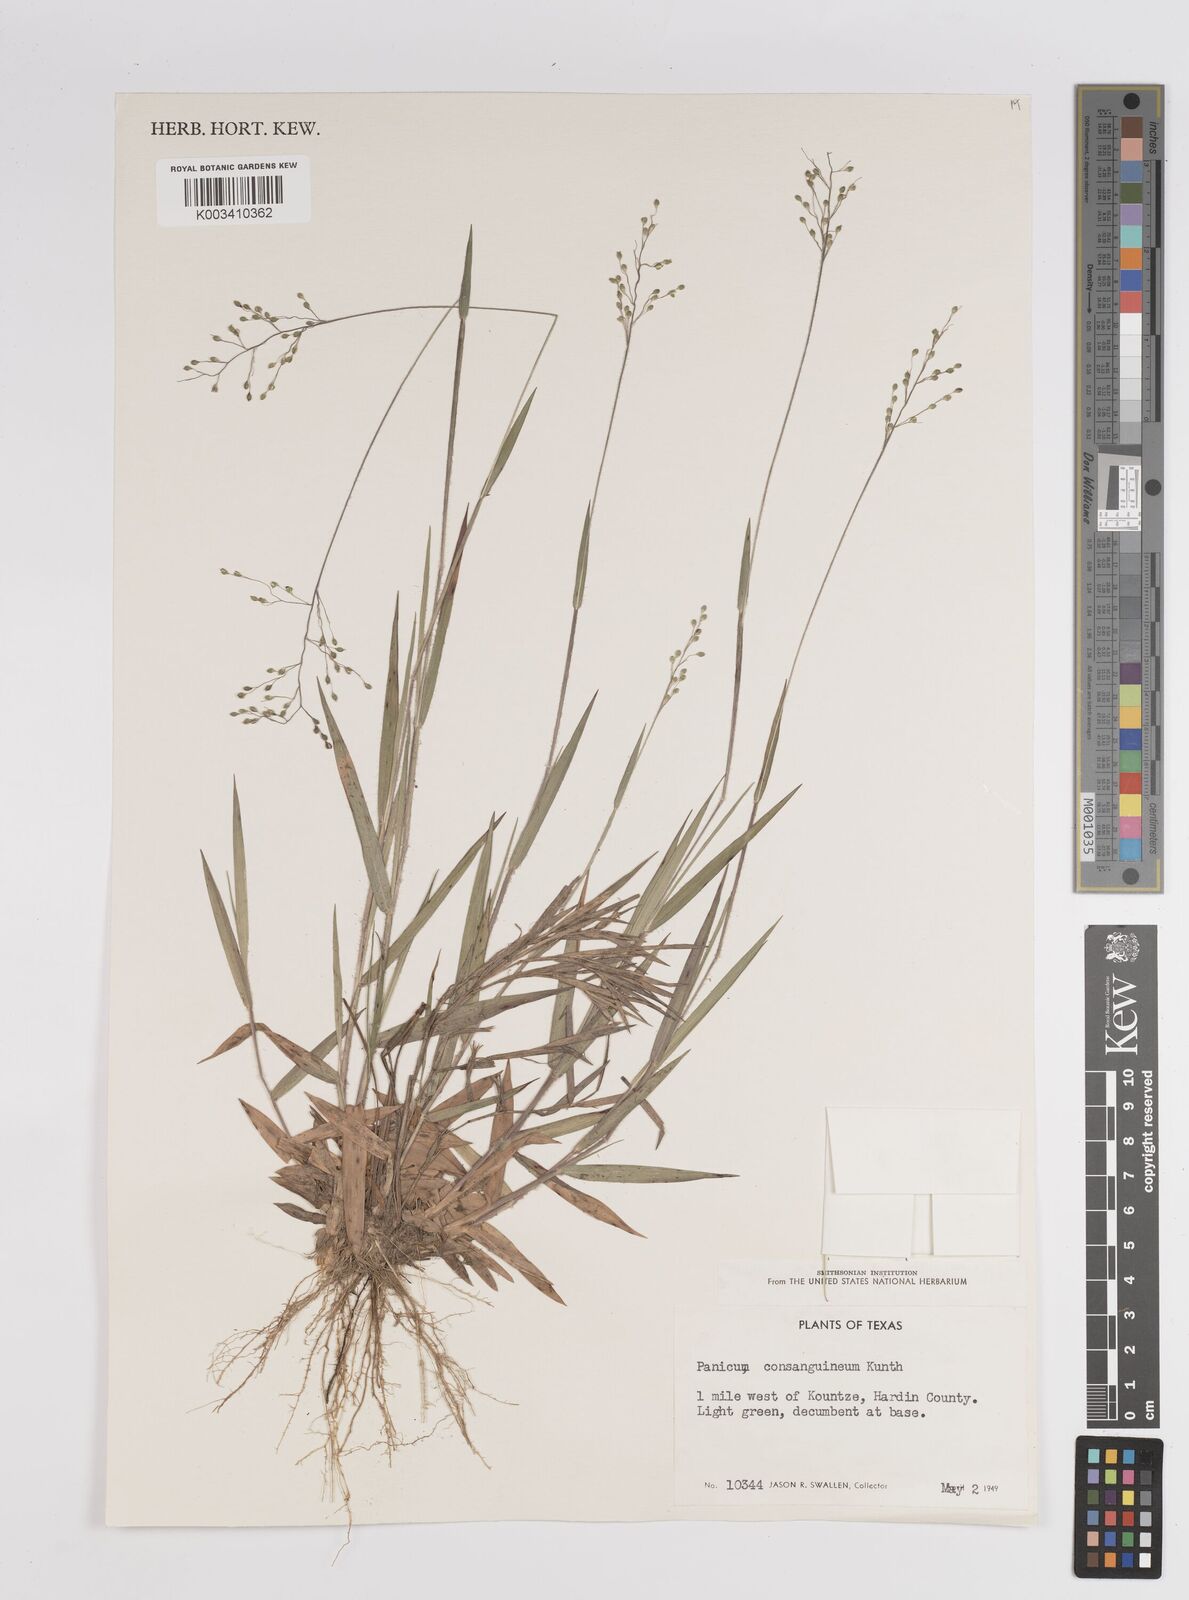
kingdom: Plantae
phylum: Tracheophyta
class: Liliopsida
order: Poales
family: Poaceae
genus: Dichanthelium
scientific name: Dichanthelium consanguineum
